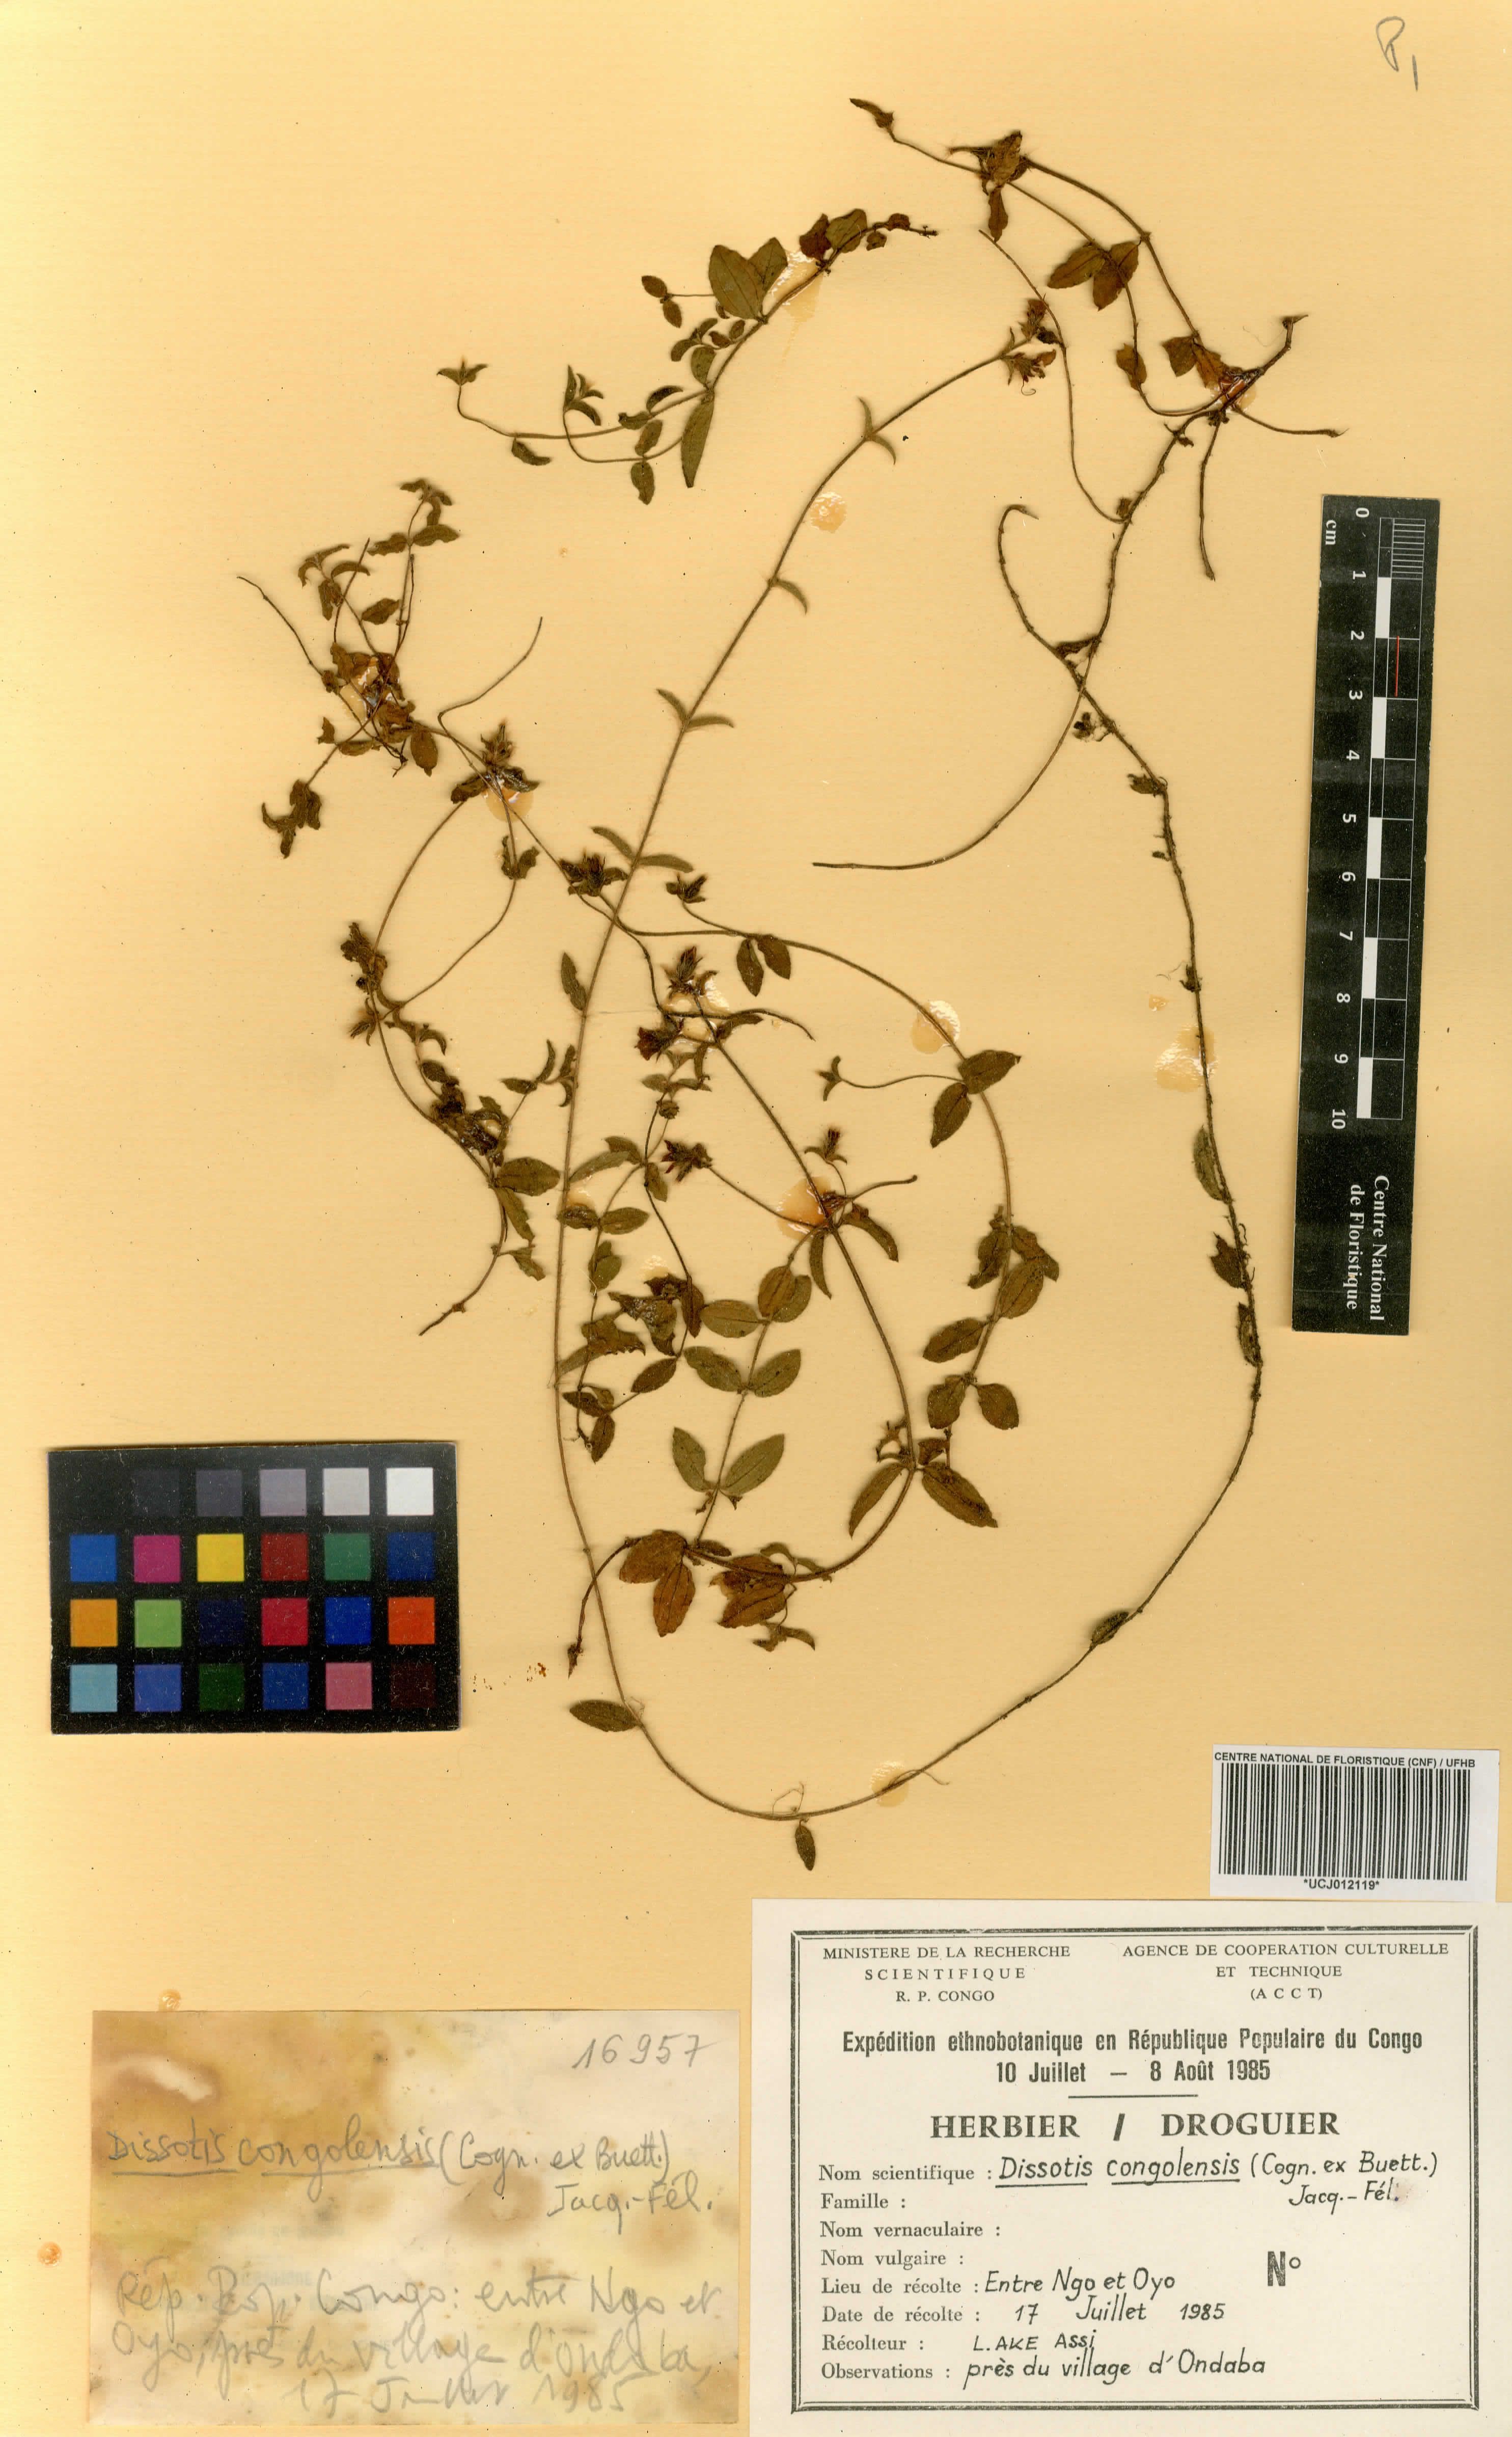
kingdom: Plantae
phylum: Tracheophyta
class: Magnoliopsida
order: Myrtales
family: Melastomataceae
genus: Nerophila
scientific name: Nerophila congolensis
